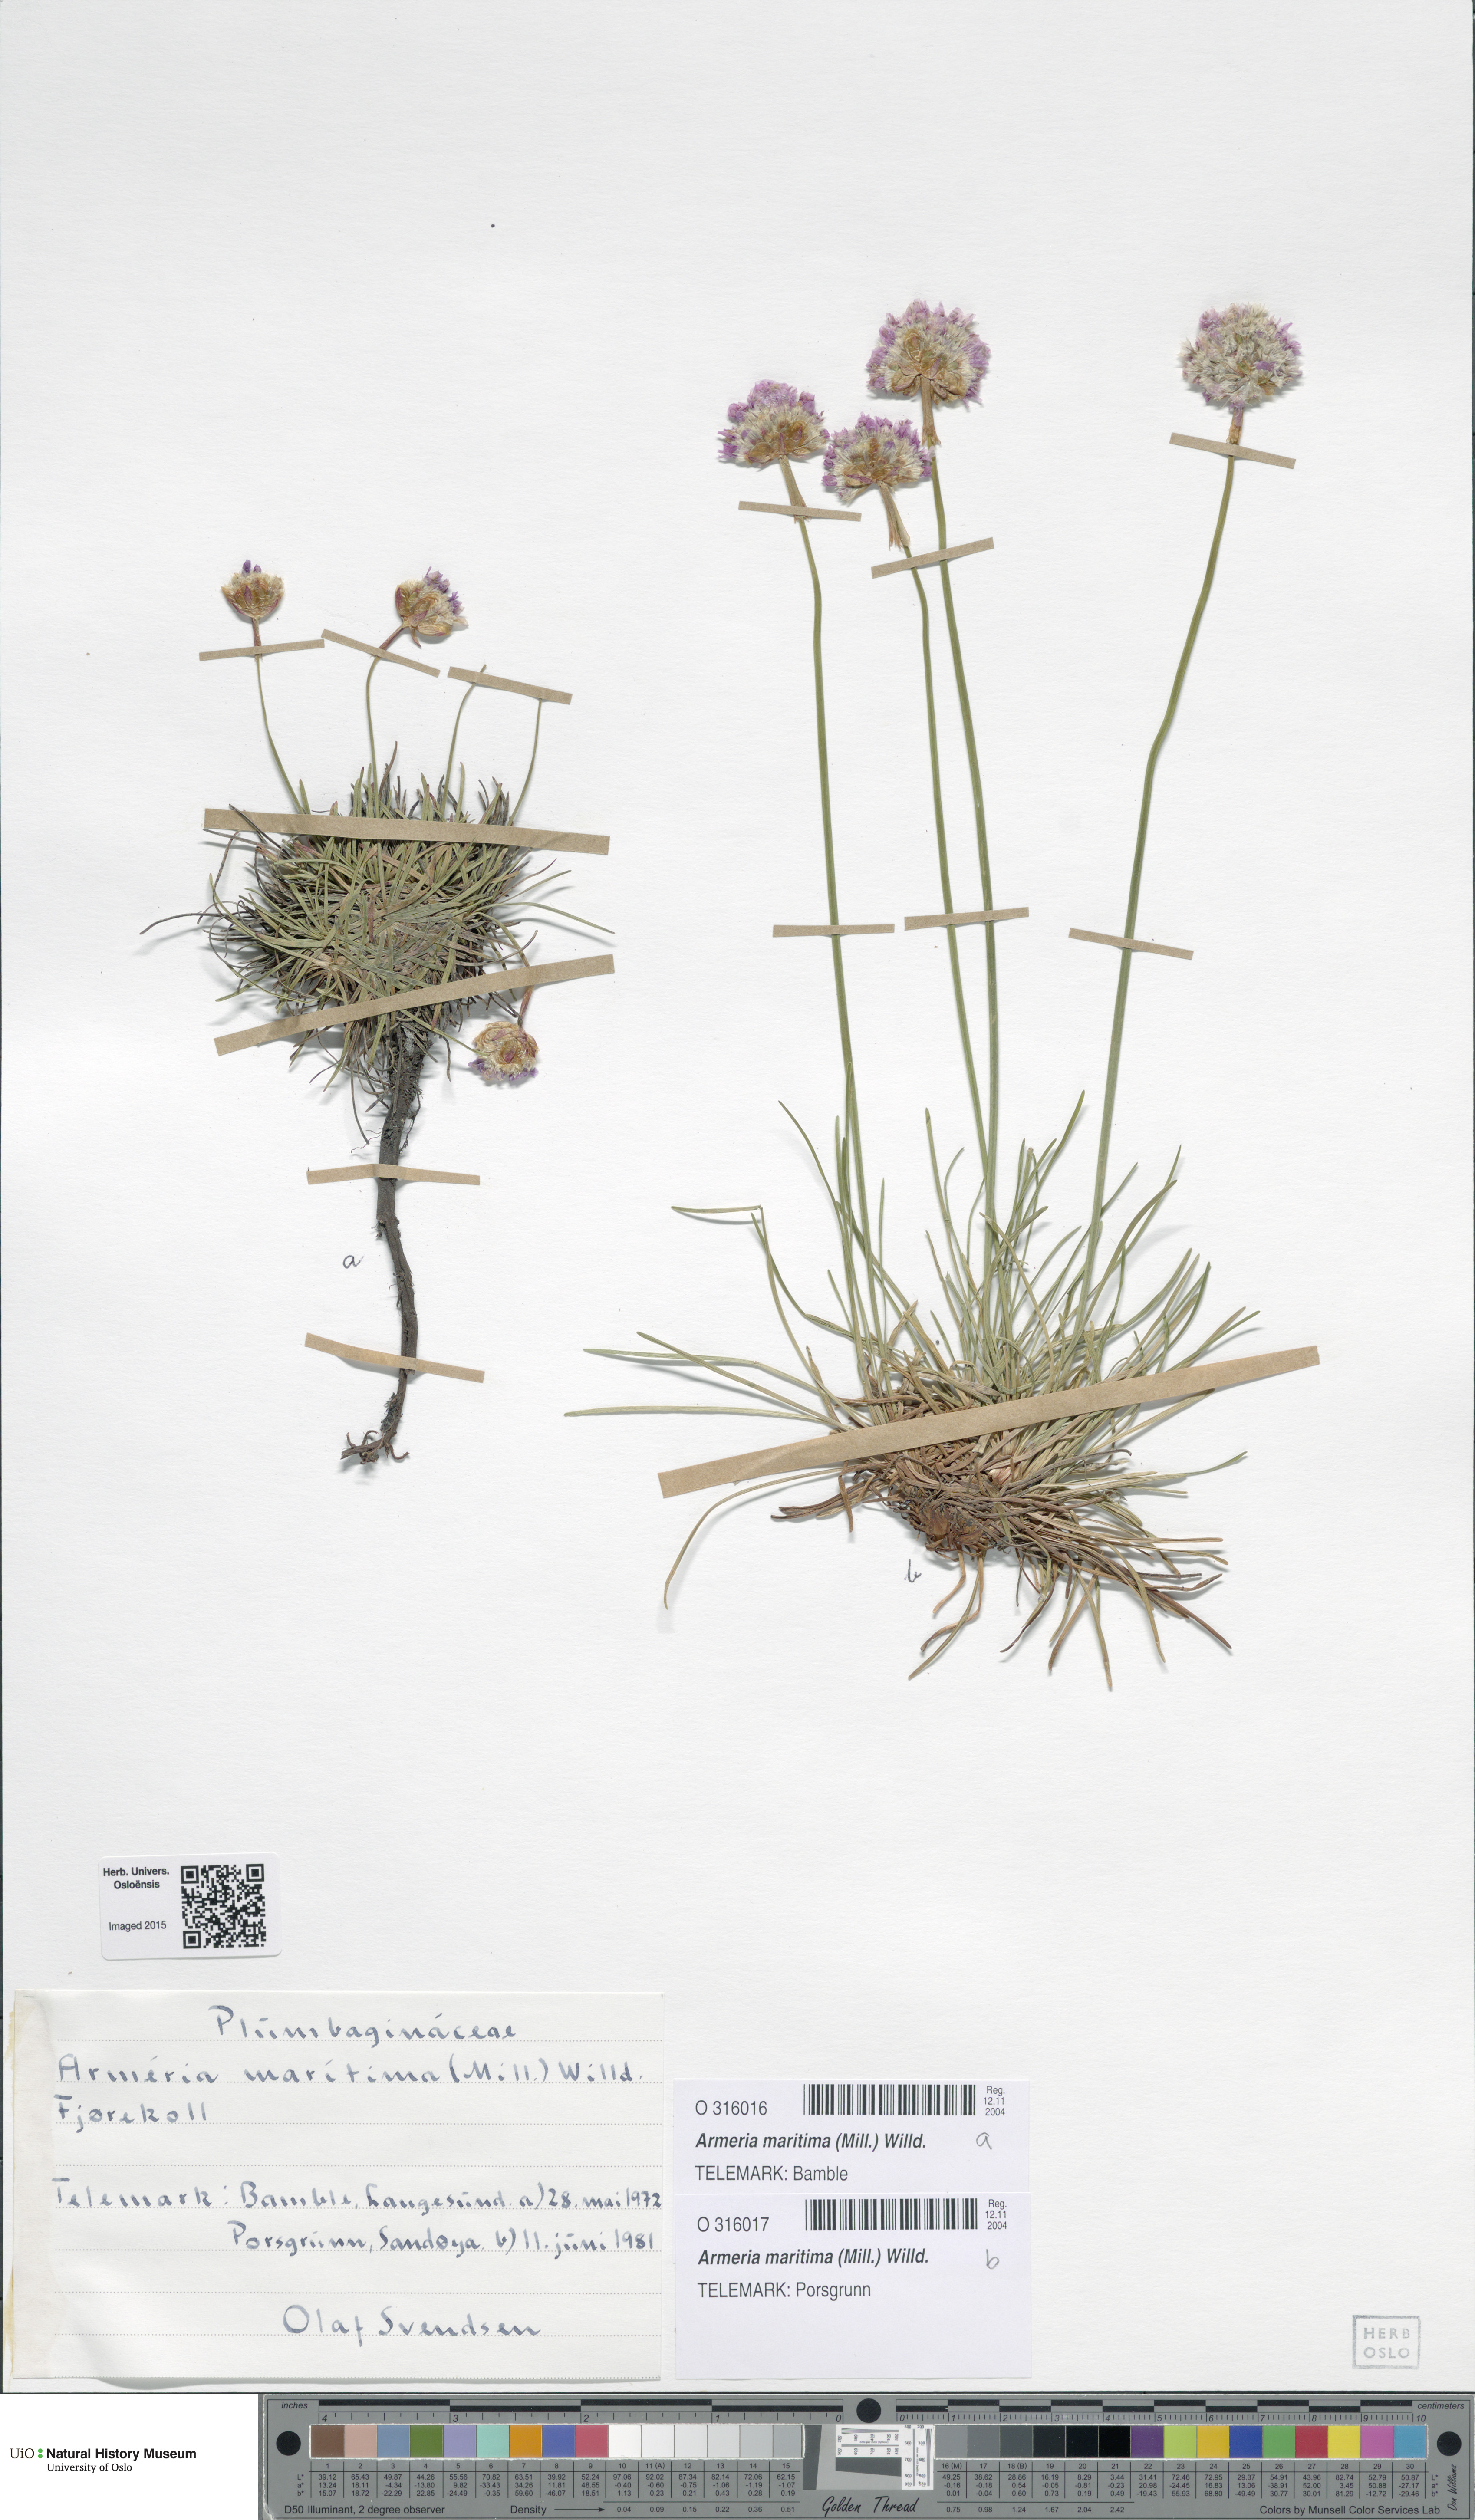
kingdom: Plantae
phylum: Tracheophyta
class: Magnoliopsida
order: Caryophyllales
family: Plumbaginaceae
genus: Armeria
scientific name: Armeria maritima
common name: Thrift
